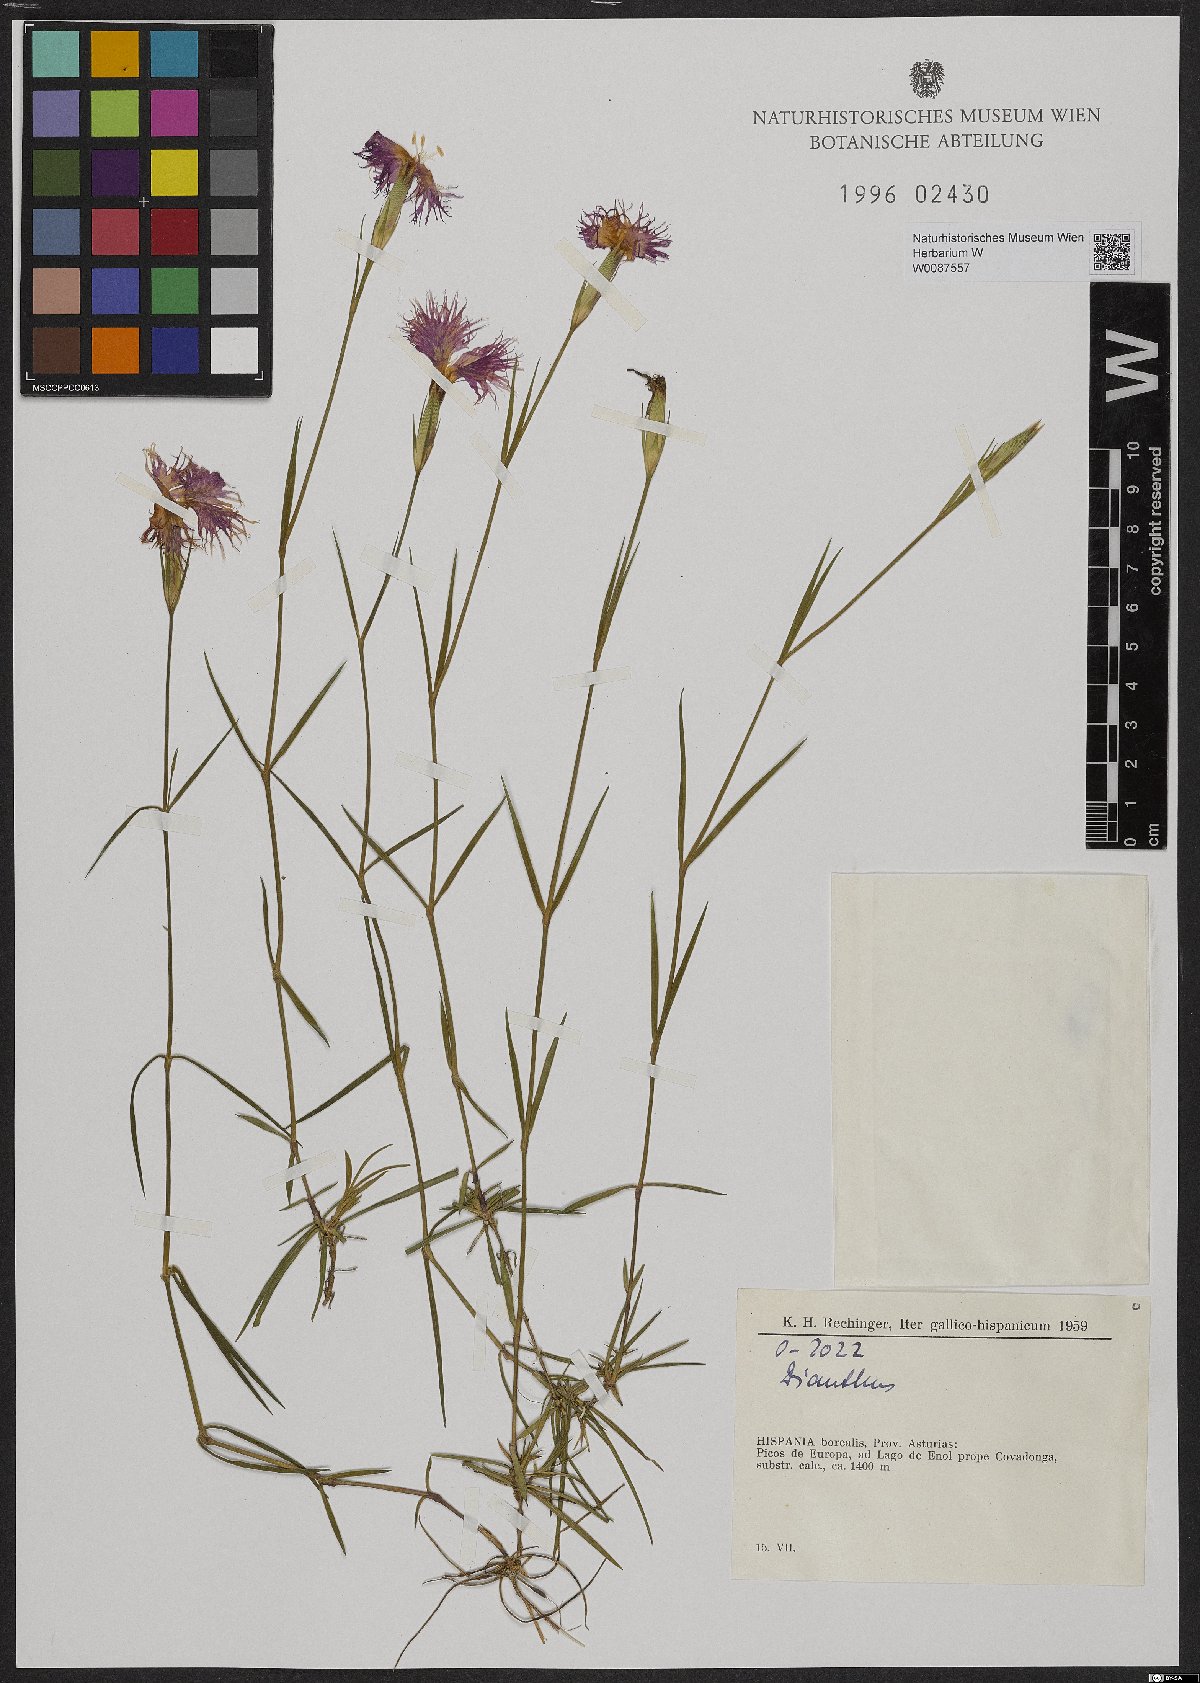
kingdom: Plantae
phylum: Tracheophyta
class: Magnoliopsida
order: Caryophyllales
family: Caryophyllaceae
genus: Dianthus
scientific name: Dianthus
